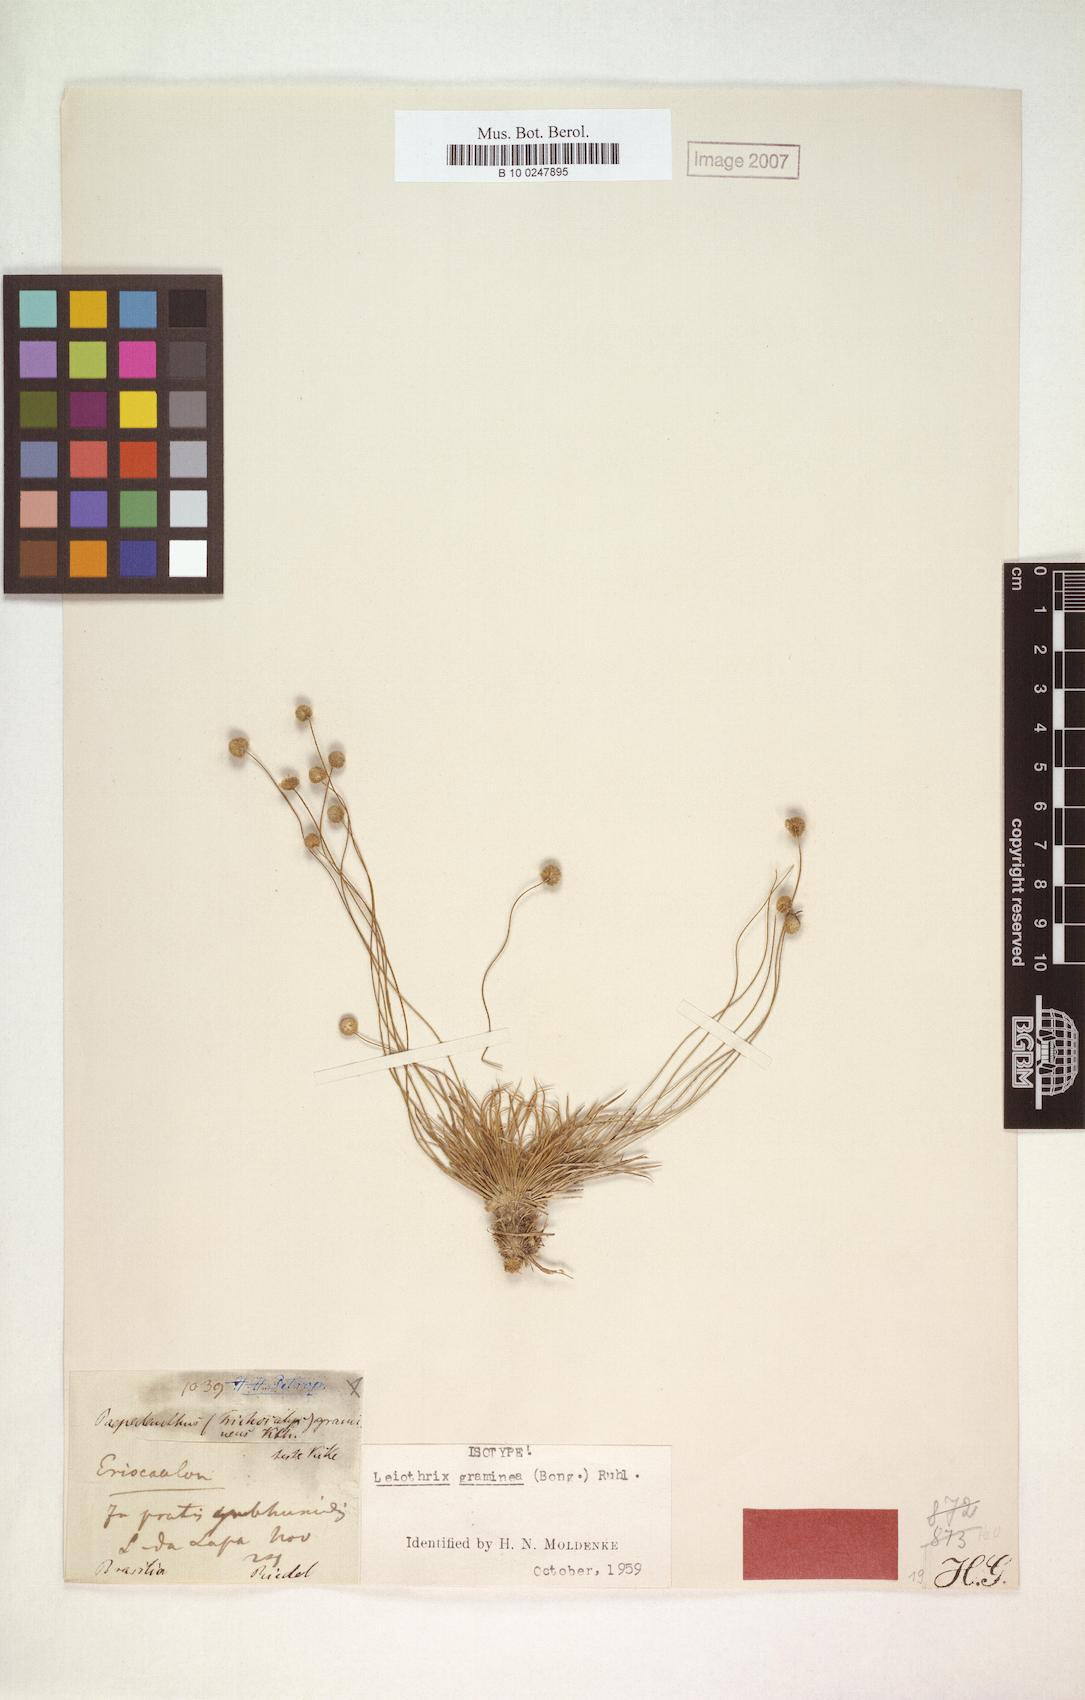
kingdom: Plantae
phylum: Tracheophyta
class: Liliopsida
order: Poales
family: Eriocaulaceae
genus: Leiothrix
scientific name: Leiothrix graminea
